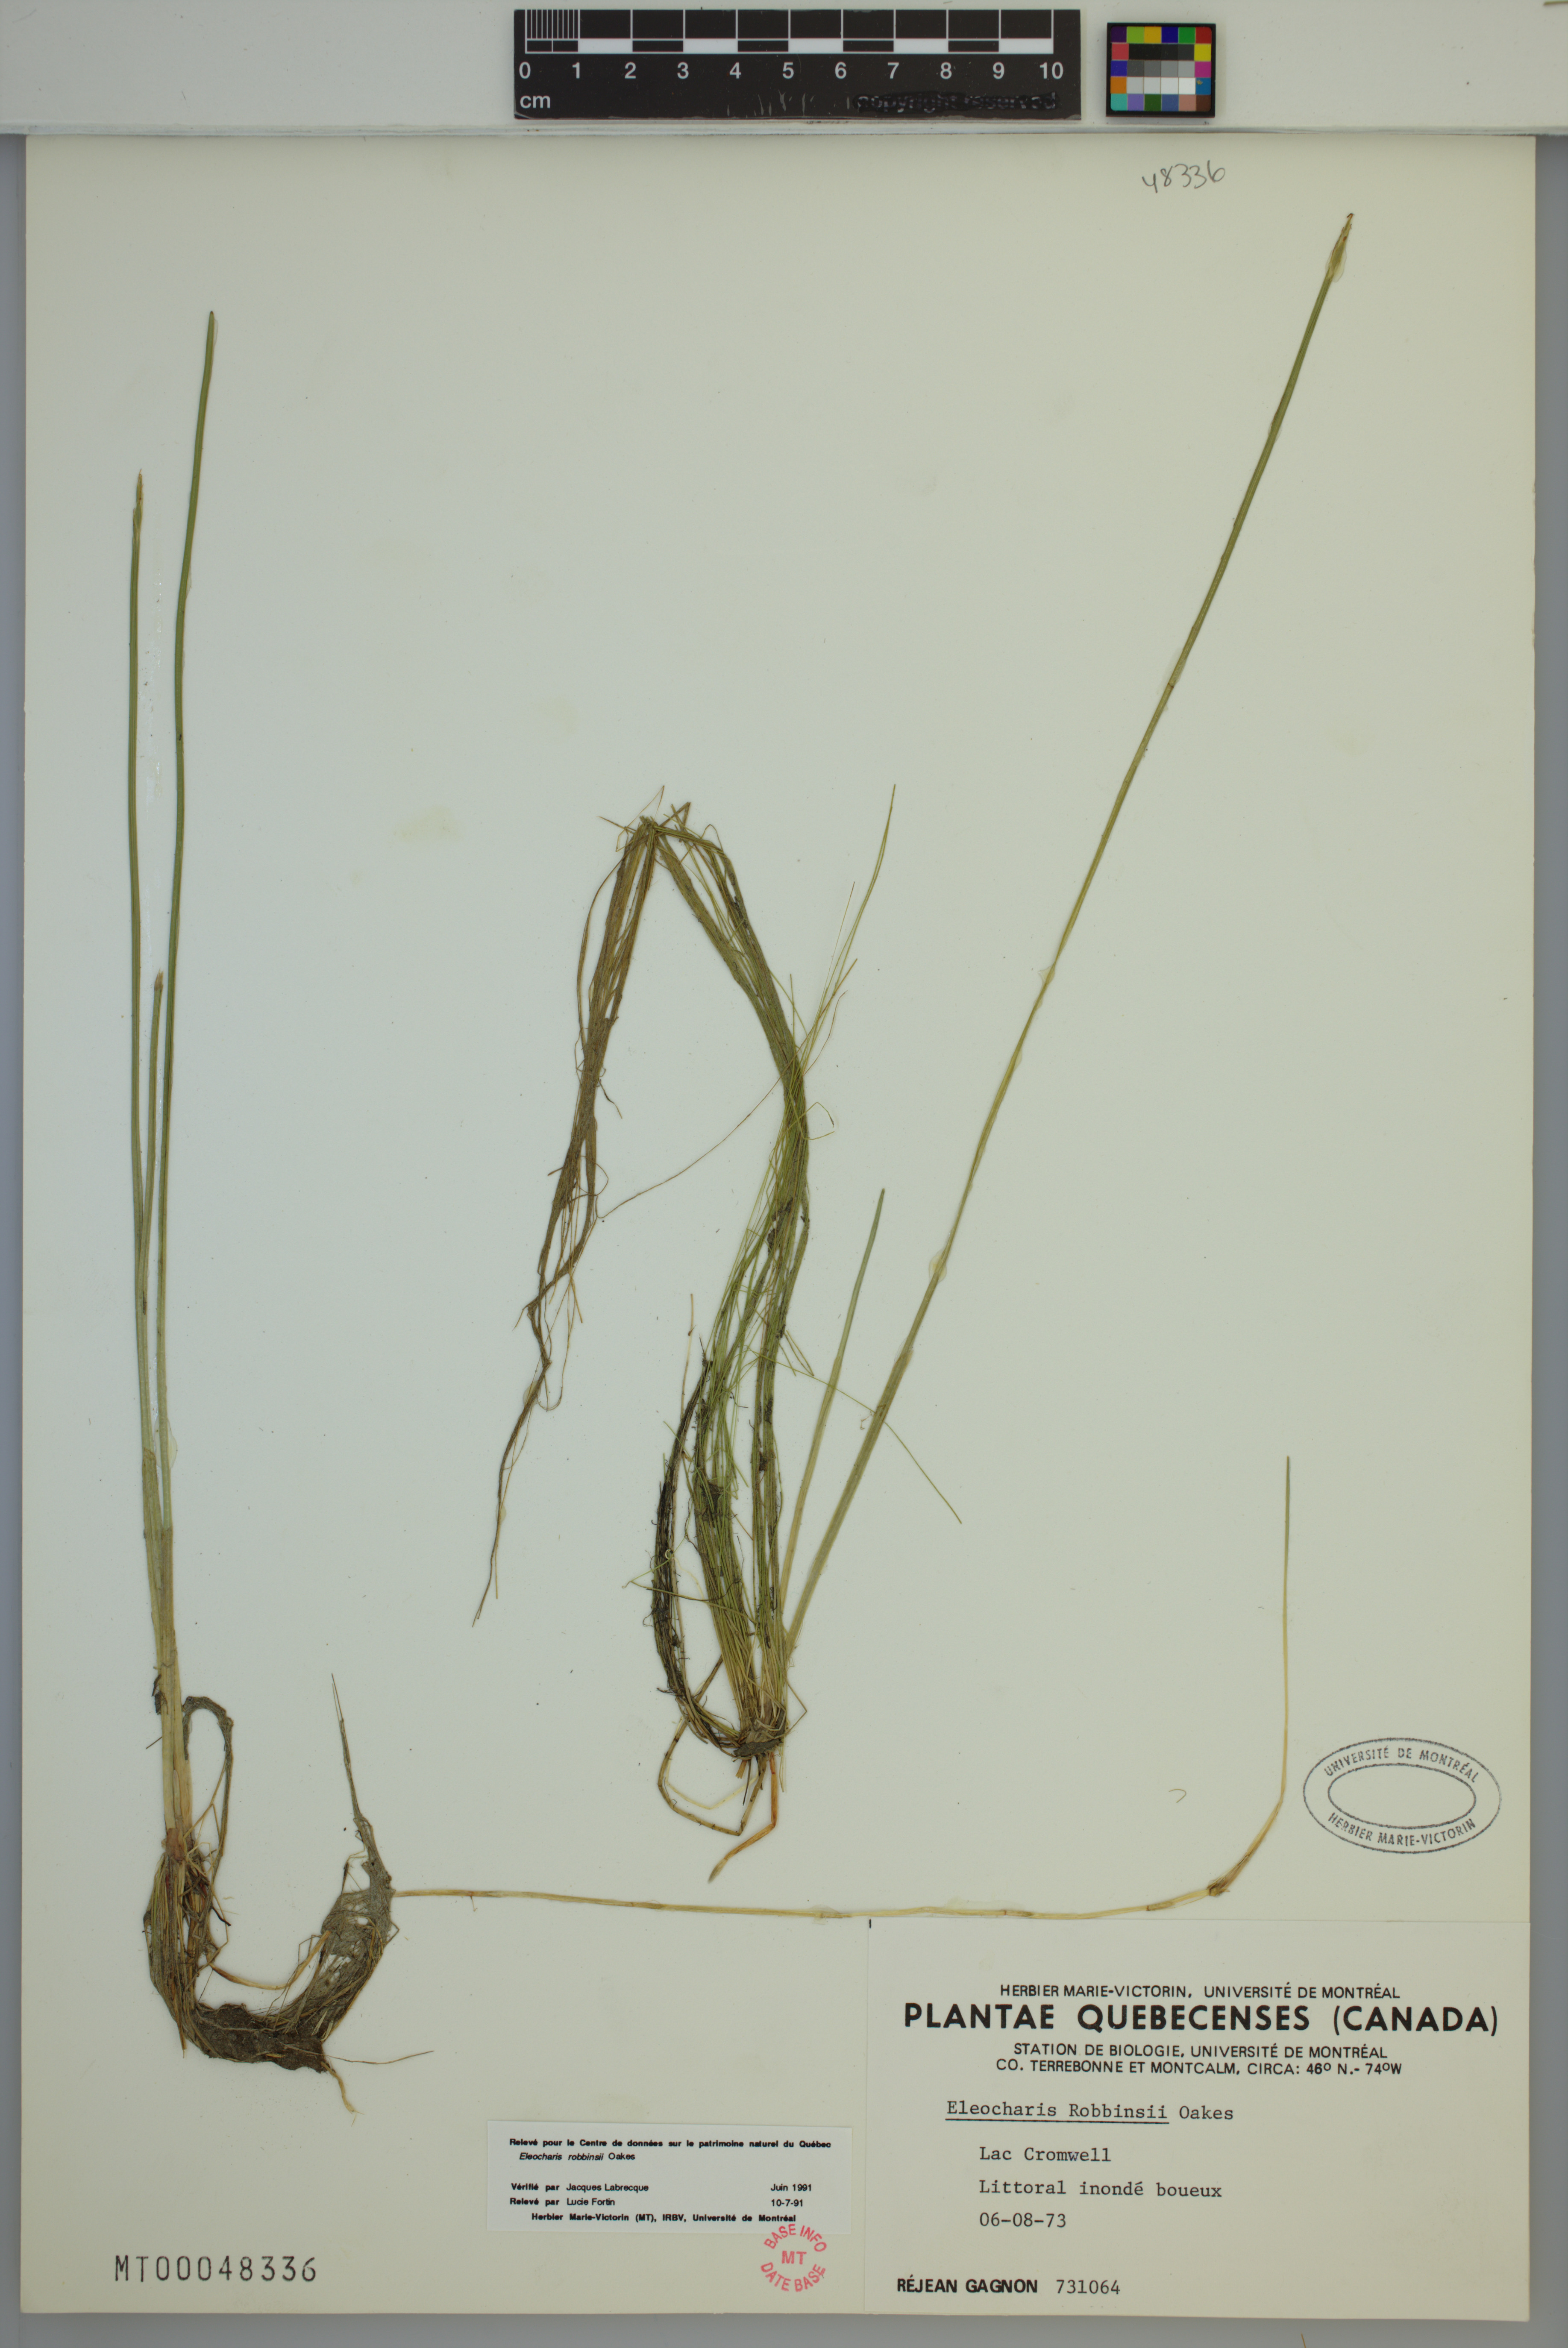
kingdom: Plantae
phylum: Tracheophyta
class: Liliopsida
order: Poales
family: Cyperaceae
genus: Eleocharis
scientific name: Eleocharis robbinsii
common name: Robbins' spikerush
